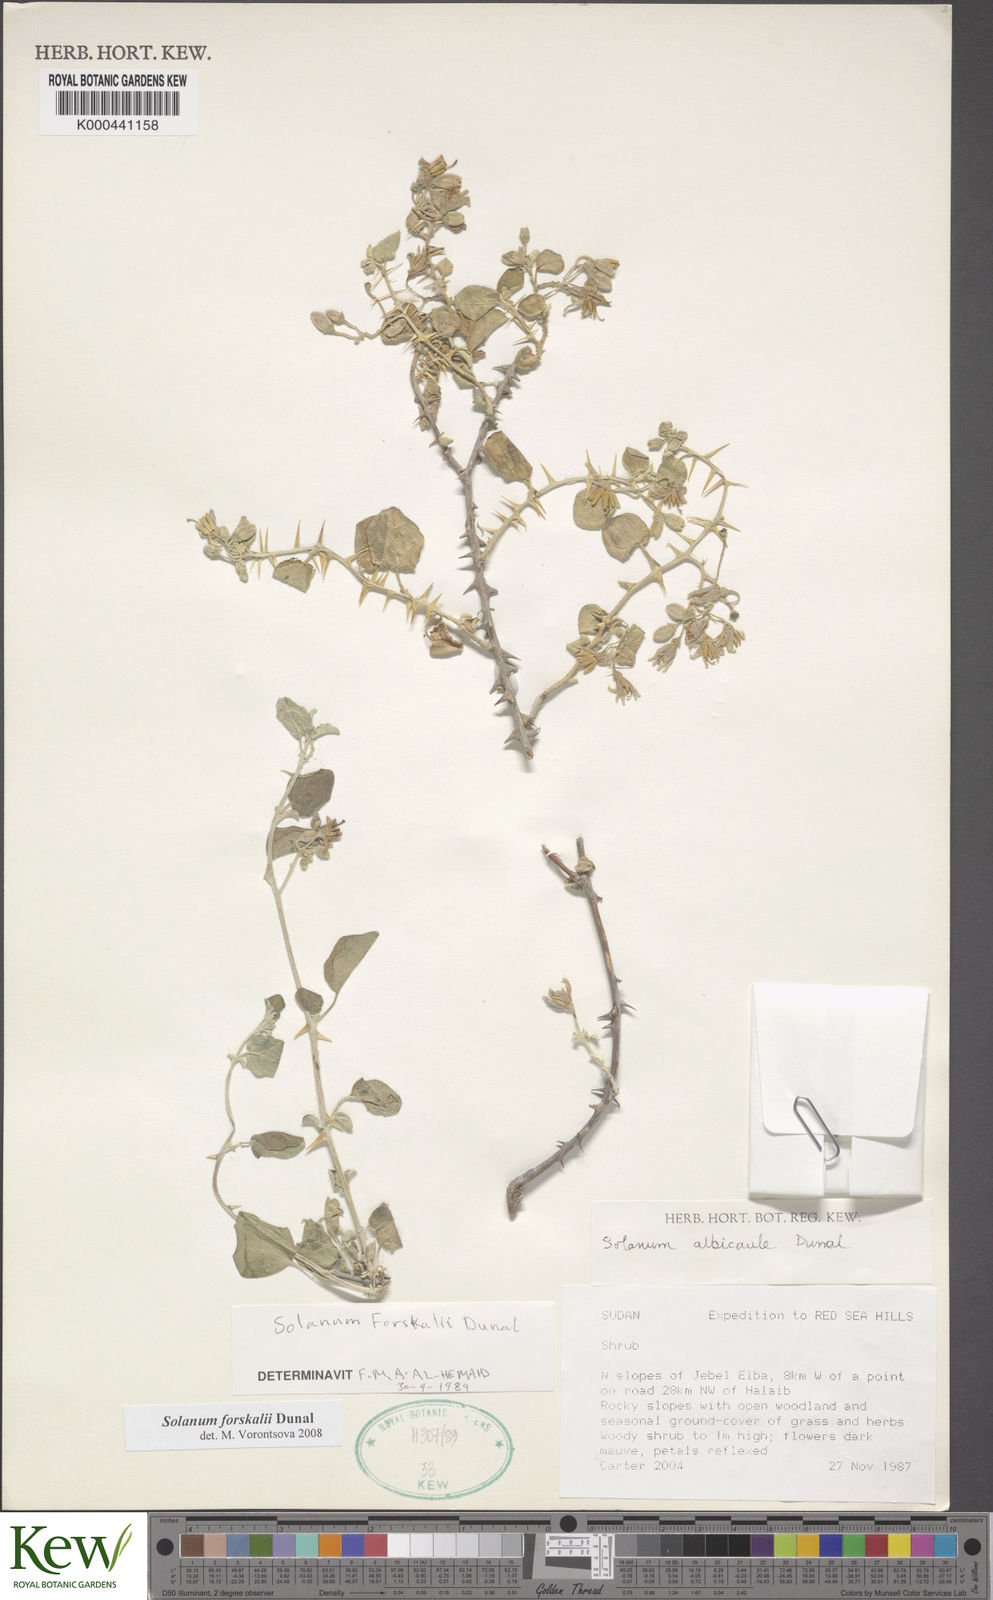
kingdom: Plantae
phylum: Tracheophyta
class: Magnoliopsida
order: Solanales
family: Solanaceae
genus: Solanum
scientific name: Solanum
